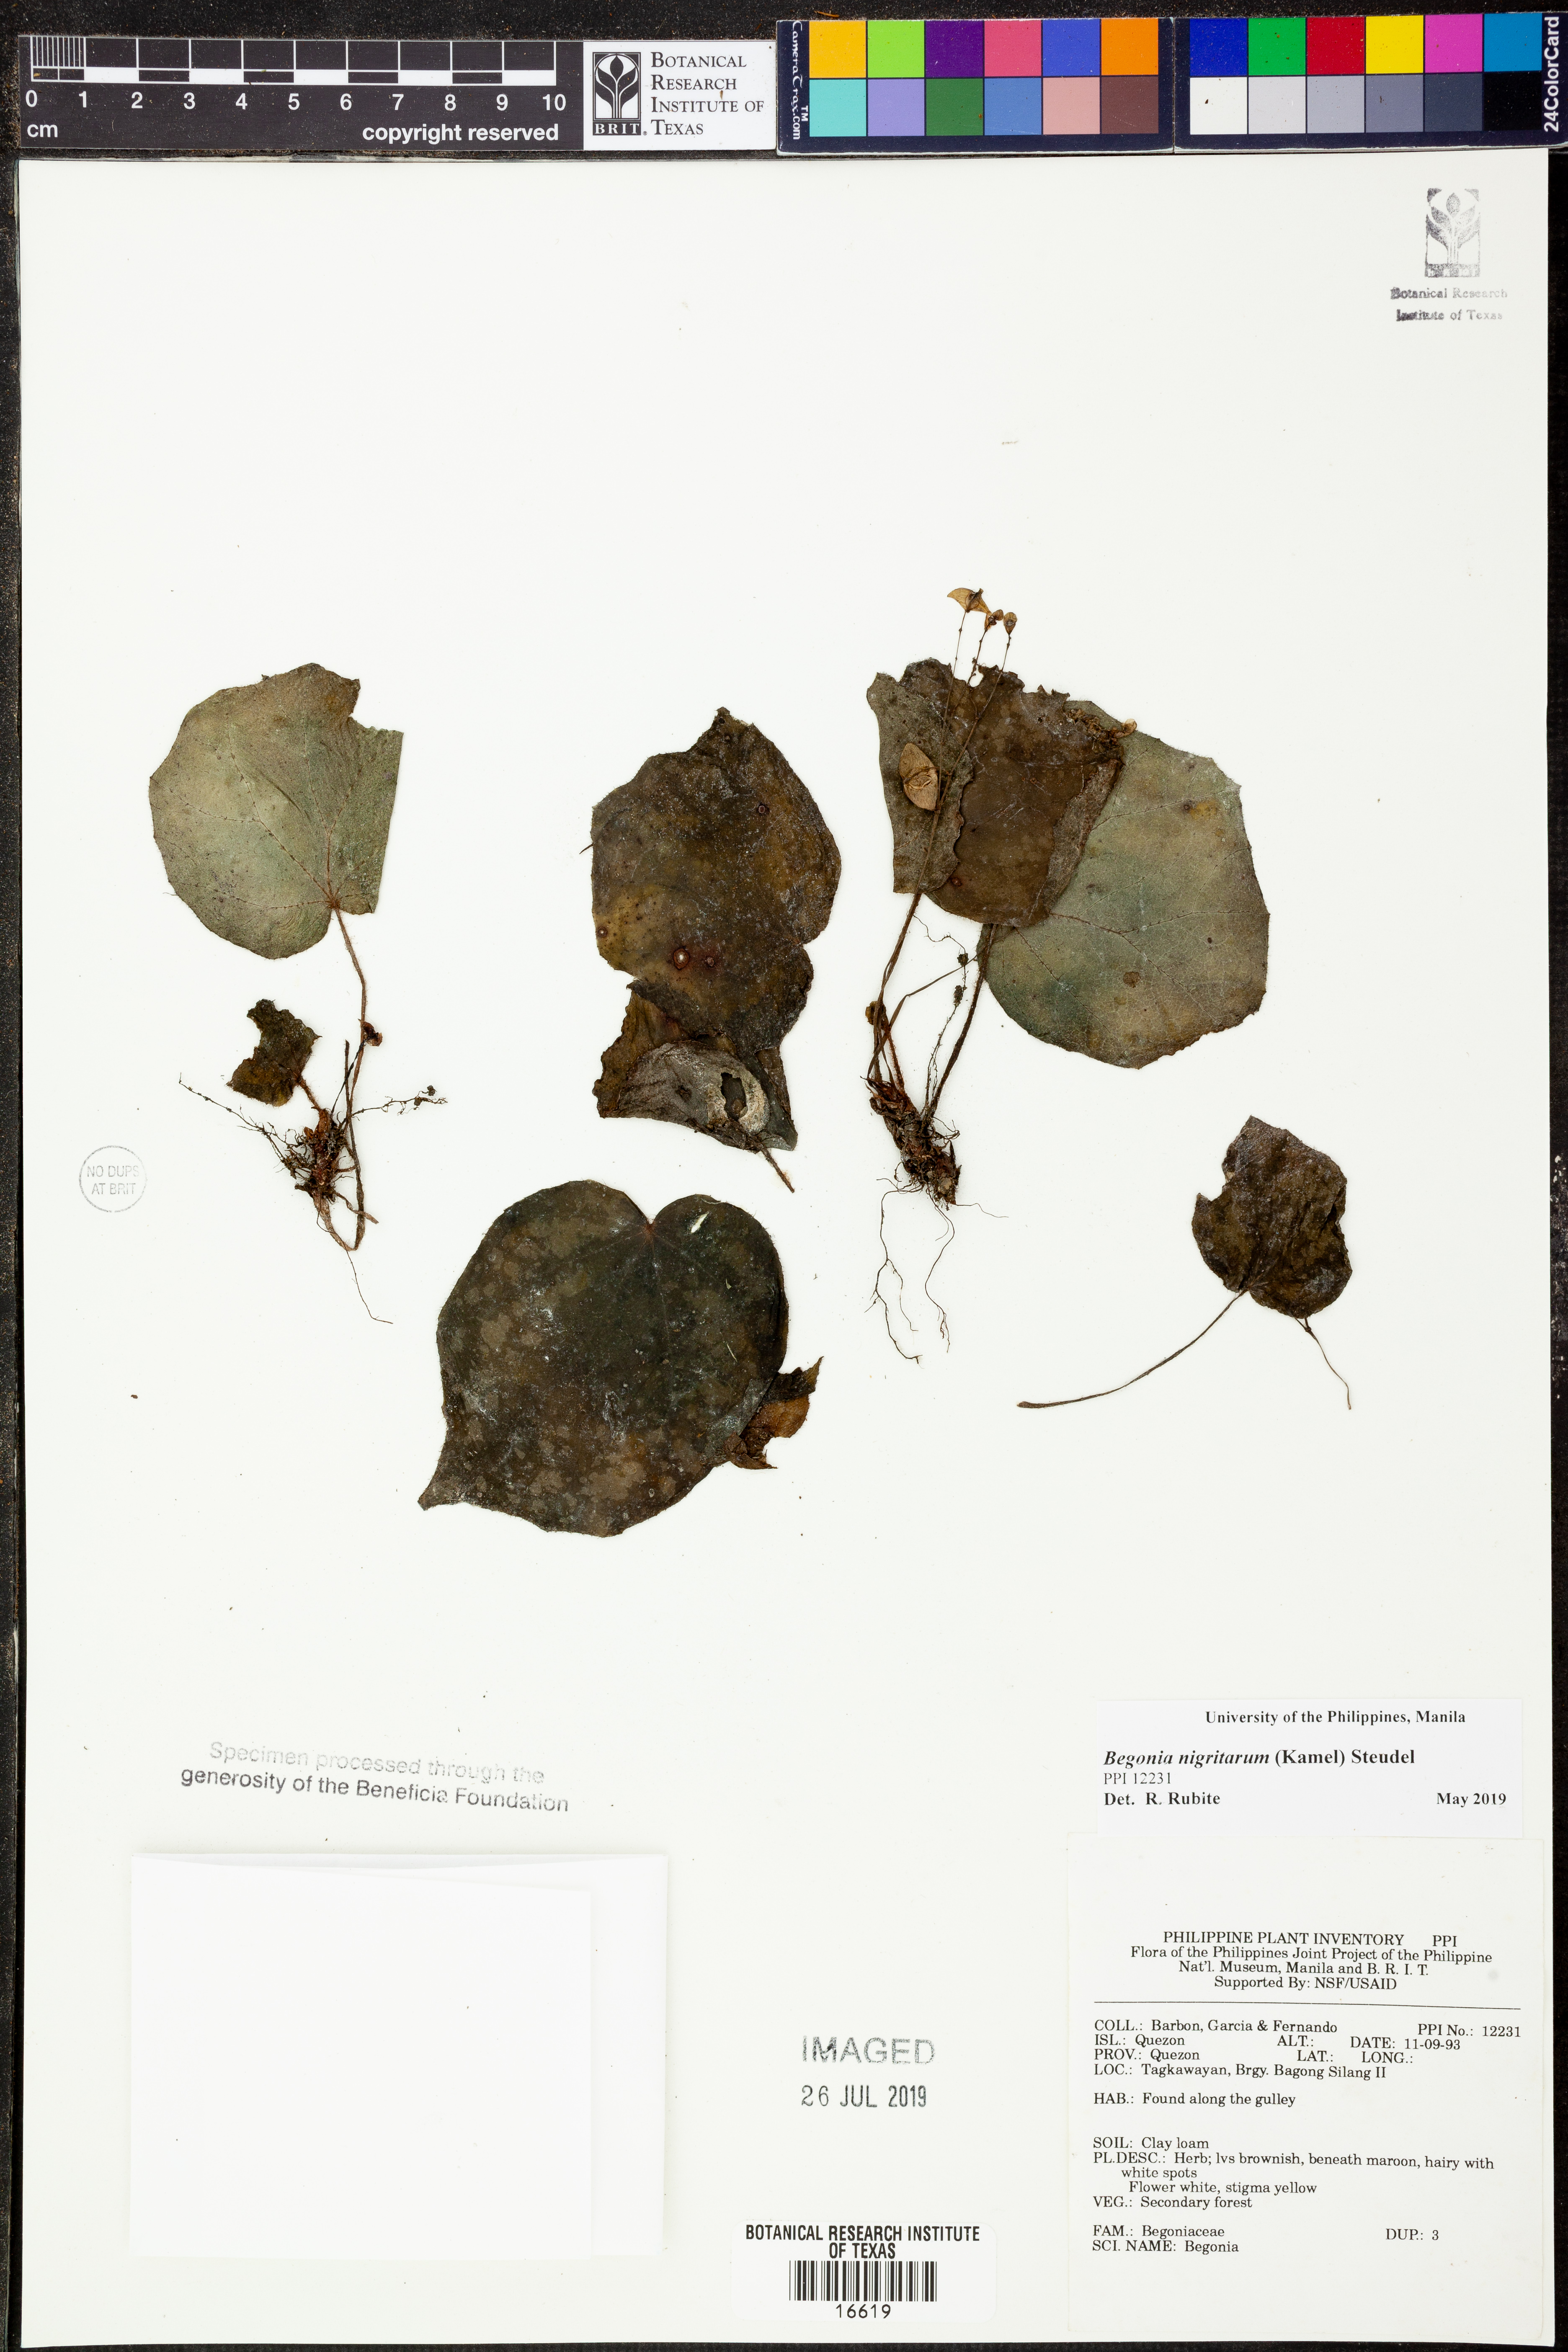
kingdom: Plantae
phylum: Tracheophyta
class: Magnoliopsida
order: Cucurbitales
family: Begoniaceae
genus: Begonia
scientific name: Begonia nigritarum
